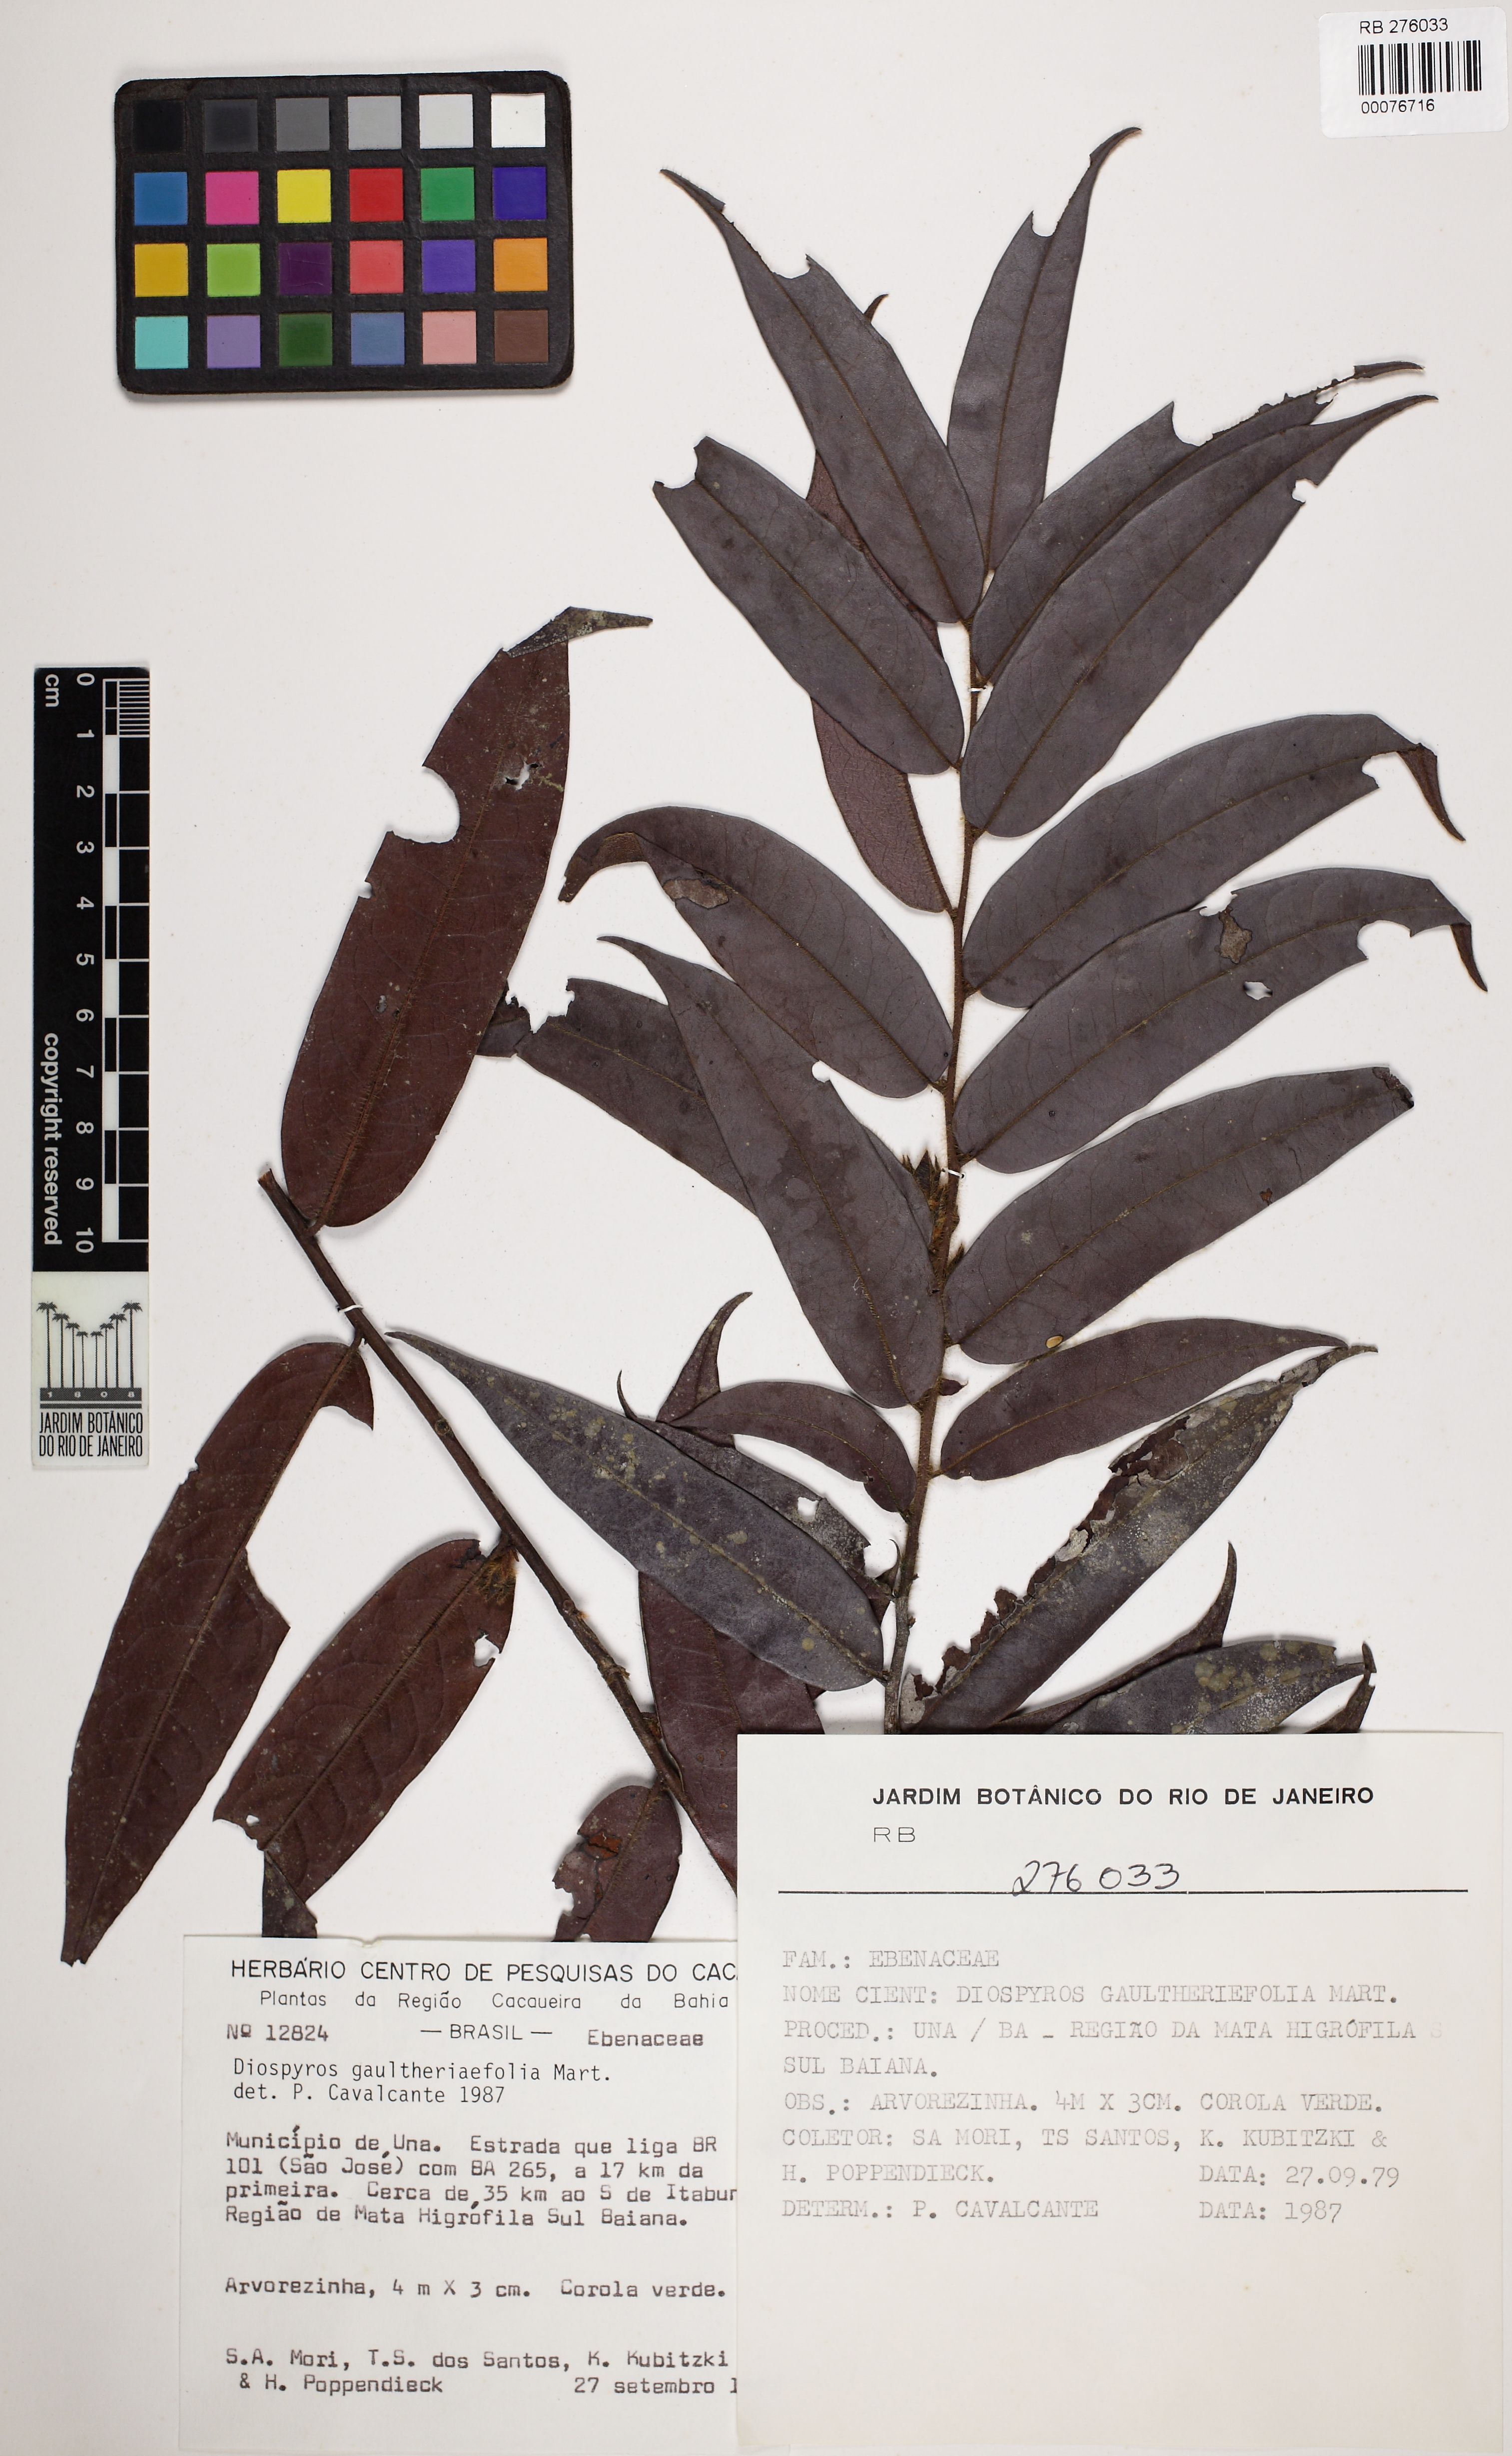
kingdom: Plantae
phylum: Tracheophyta
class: Magnoliopsida
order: Ericales
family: Ebenaceae
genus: Diospyros
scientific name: Diospyros
